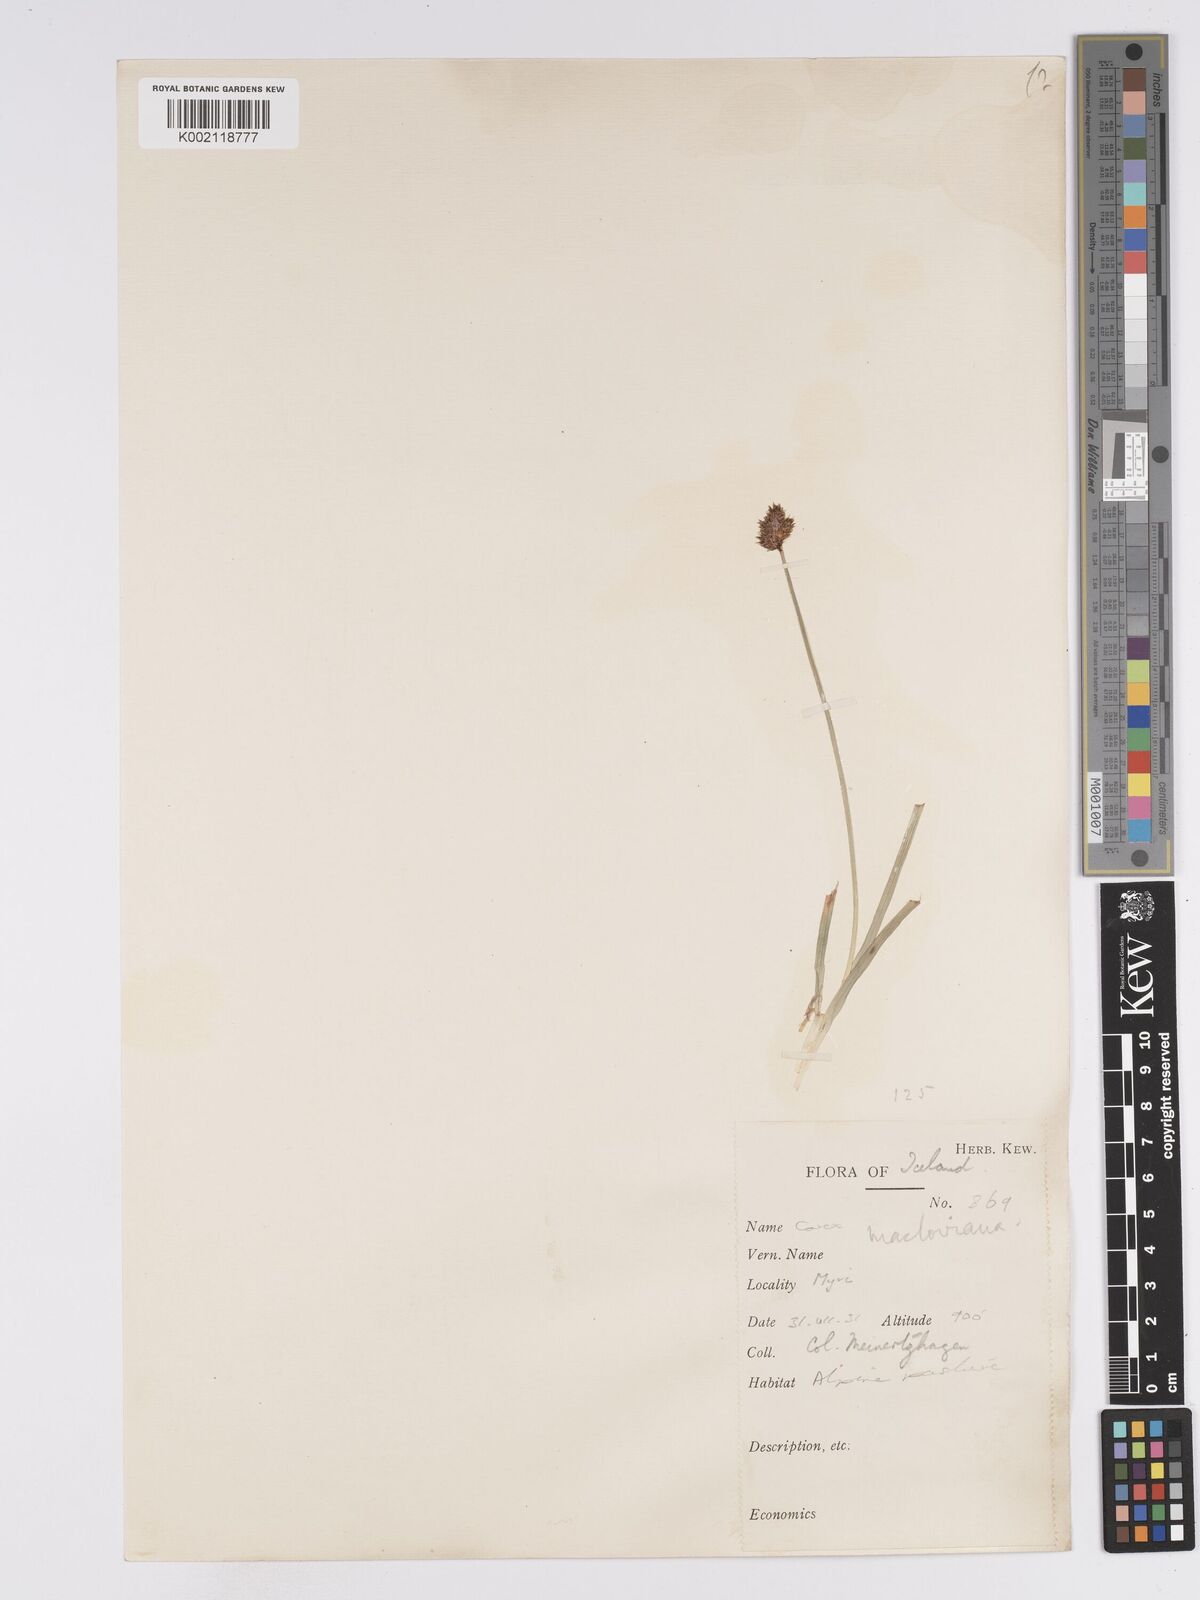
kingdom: Plantae
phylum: Tracheophyta
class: Liliopsida
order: Poales
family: Cyperaceae
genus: Carex
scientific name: Carex macloviana
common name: Falkland island sedge
